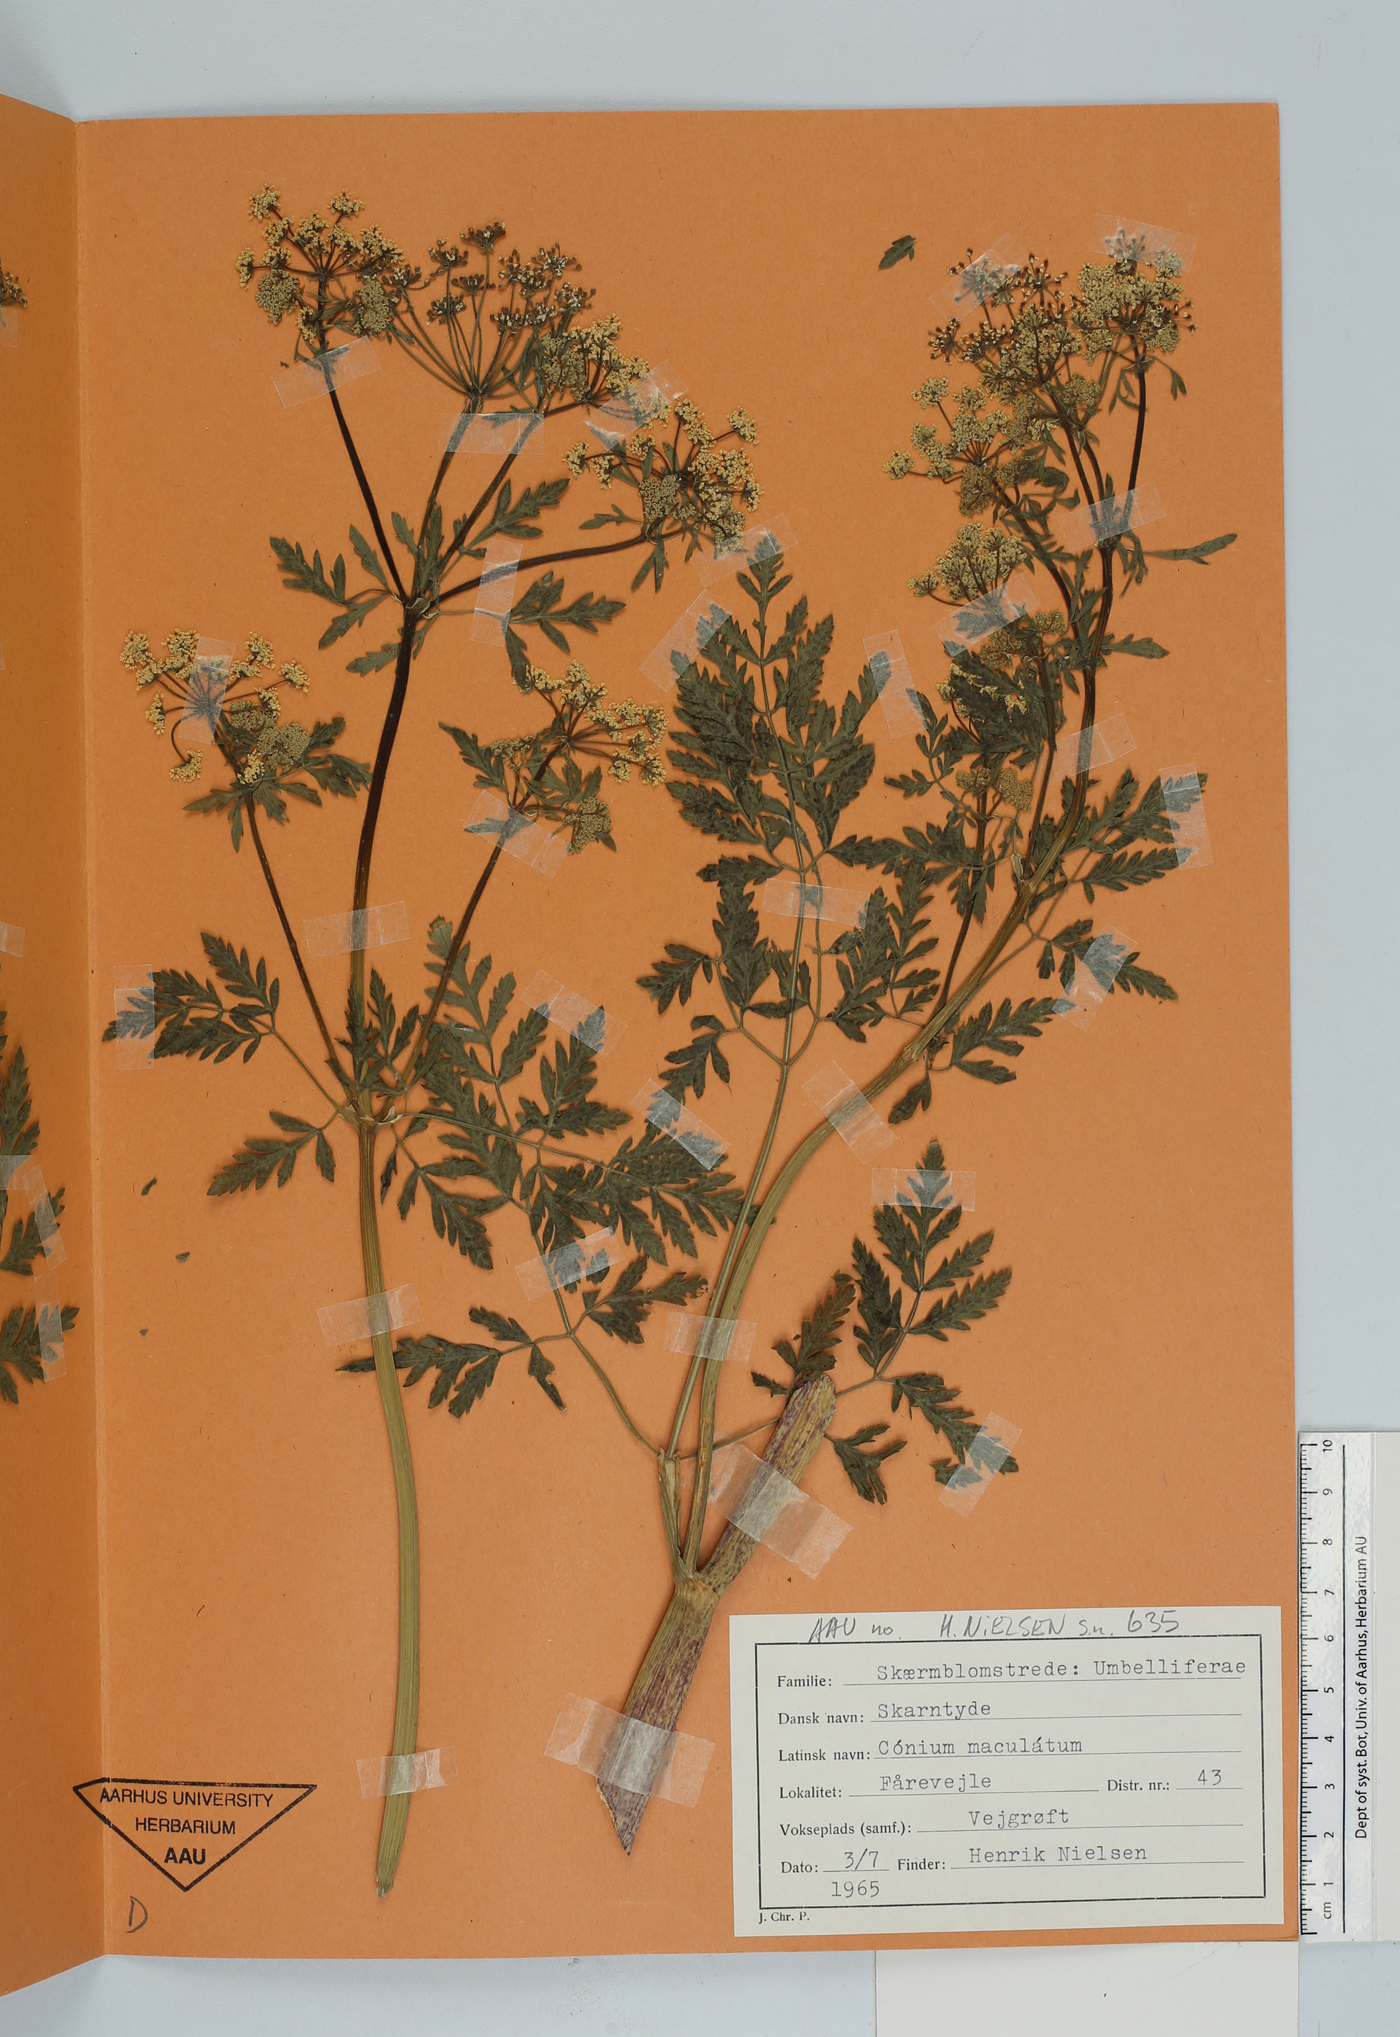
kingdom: Plantae
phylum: Tracheophyta
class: Magnoliopsida
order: Apiales
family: Apiaceae
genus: Conium
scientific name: Conium maculatum
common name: Hemlock
